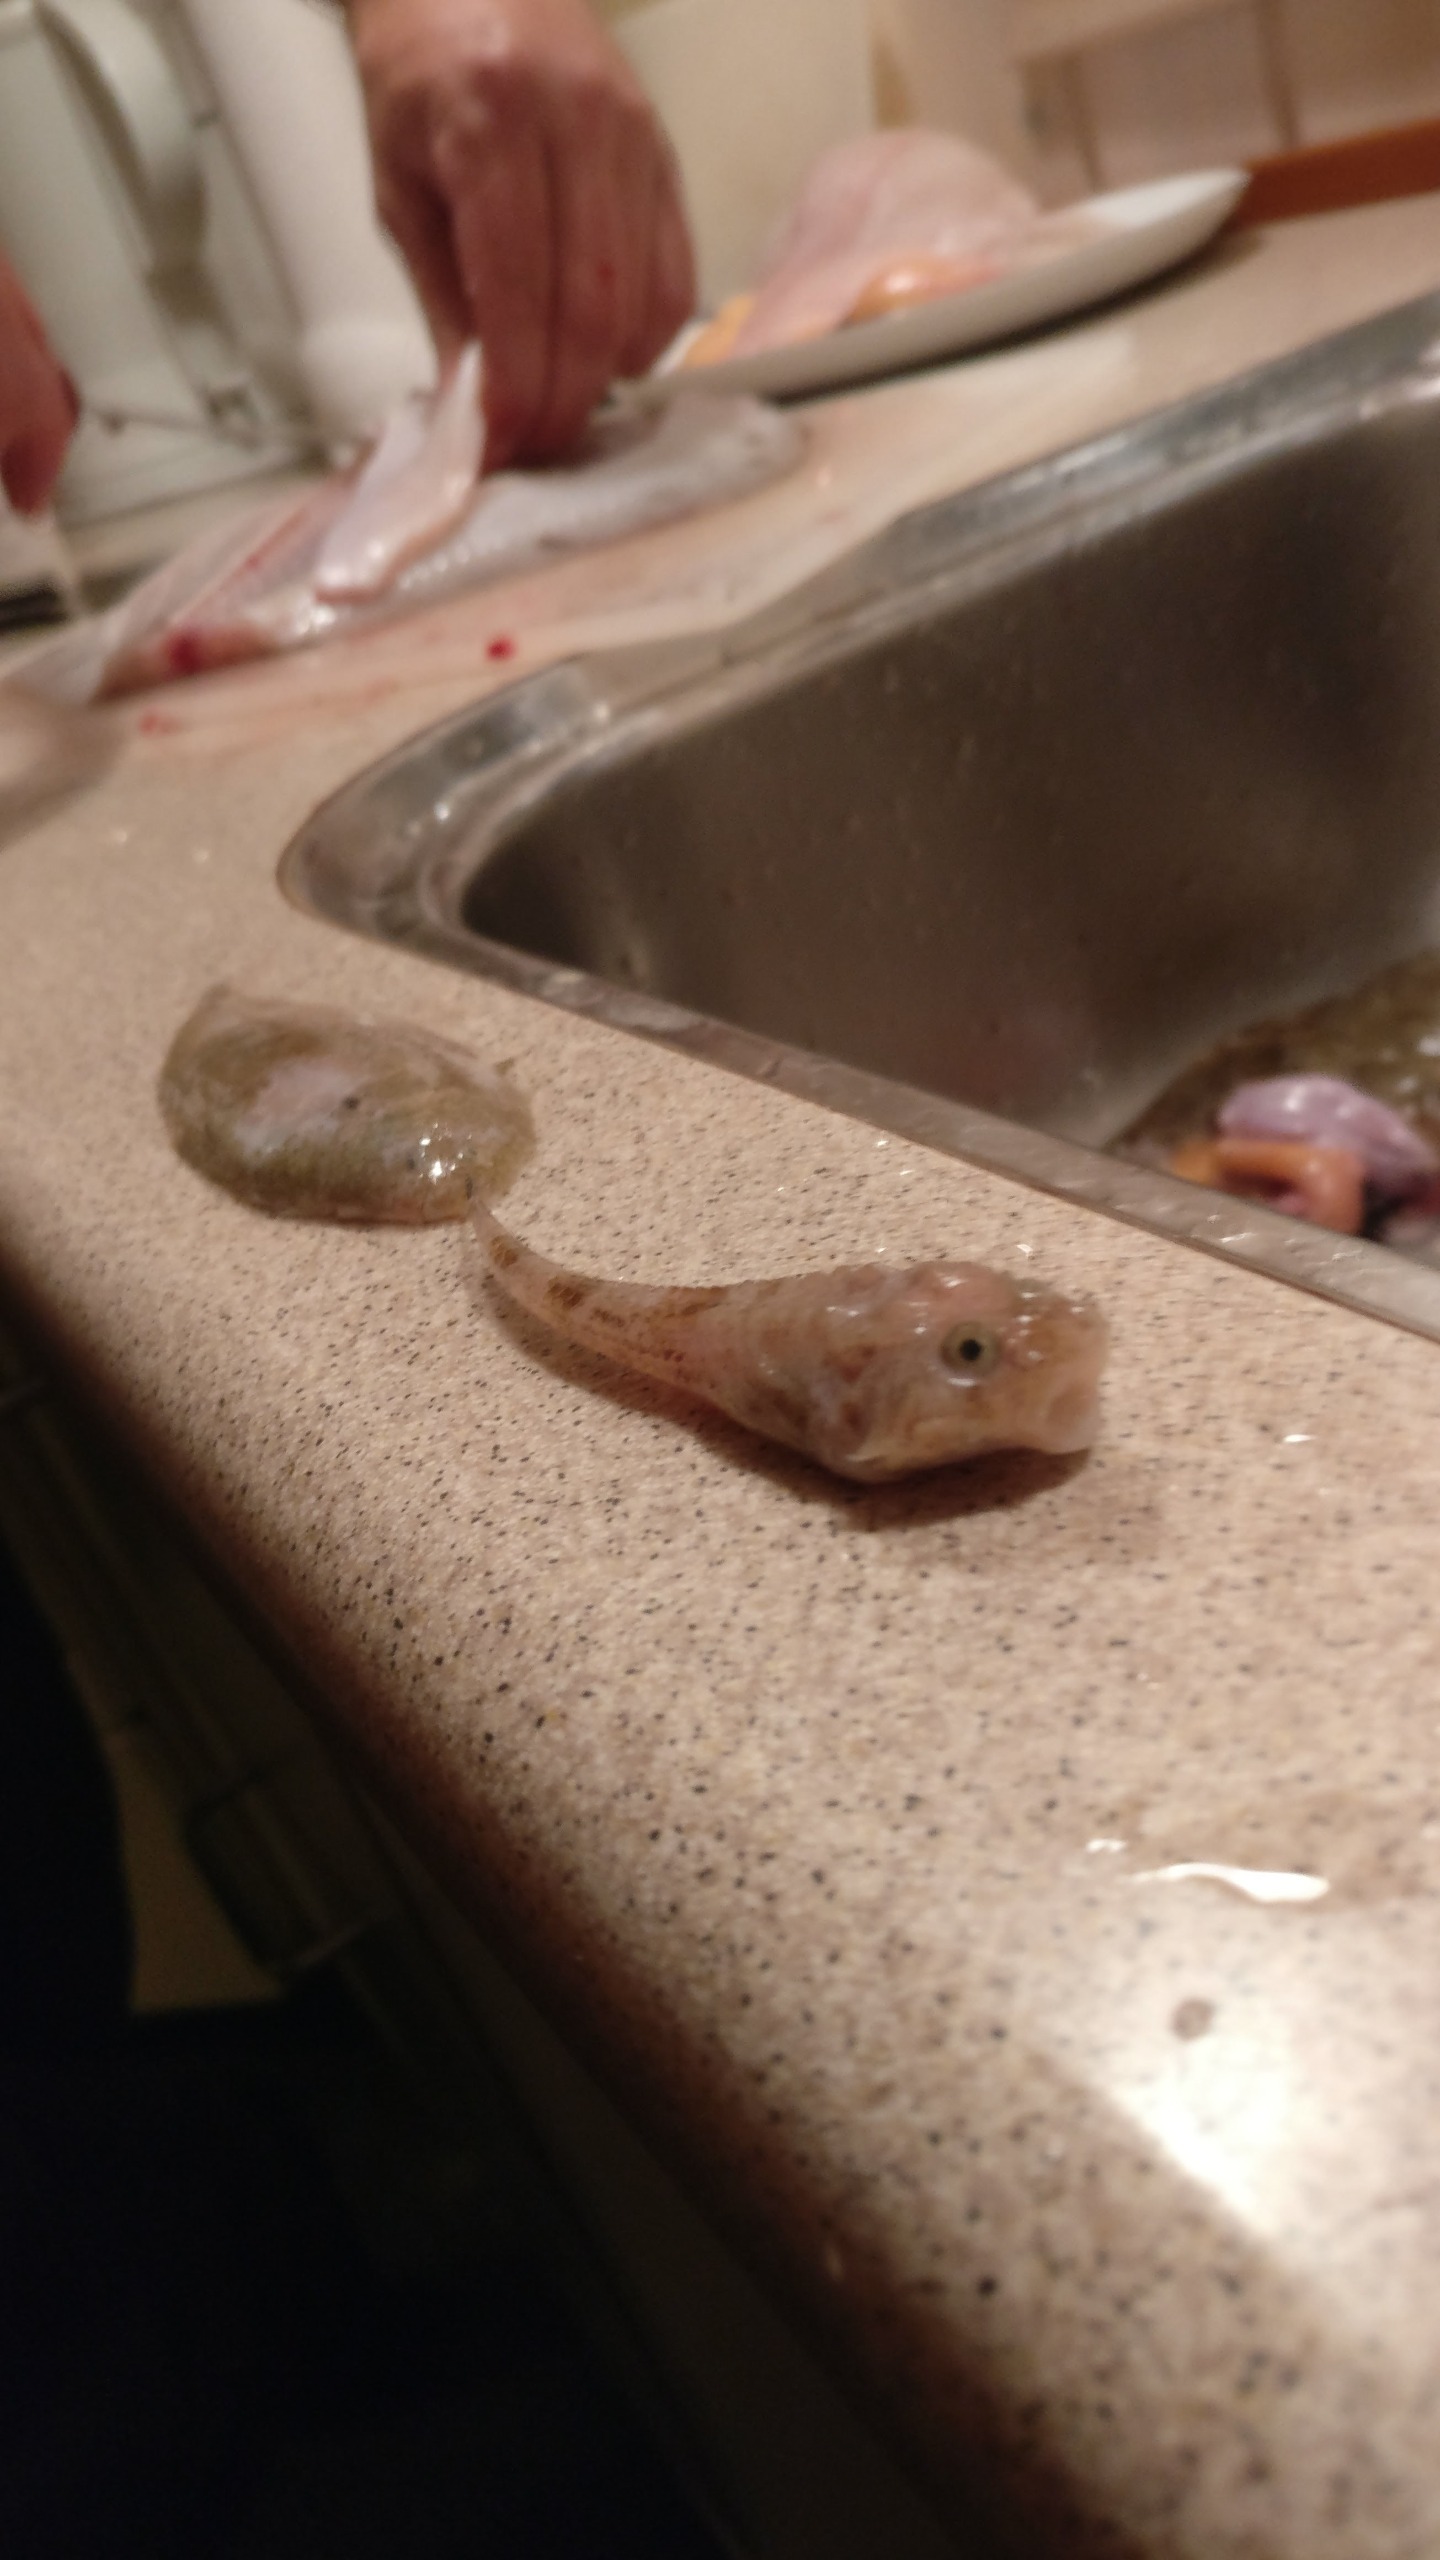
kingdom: Animalia
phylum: Chordata
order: Pleuronectiformes
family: Soleidae
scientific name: Soleidae
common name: Tungefamilien
